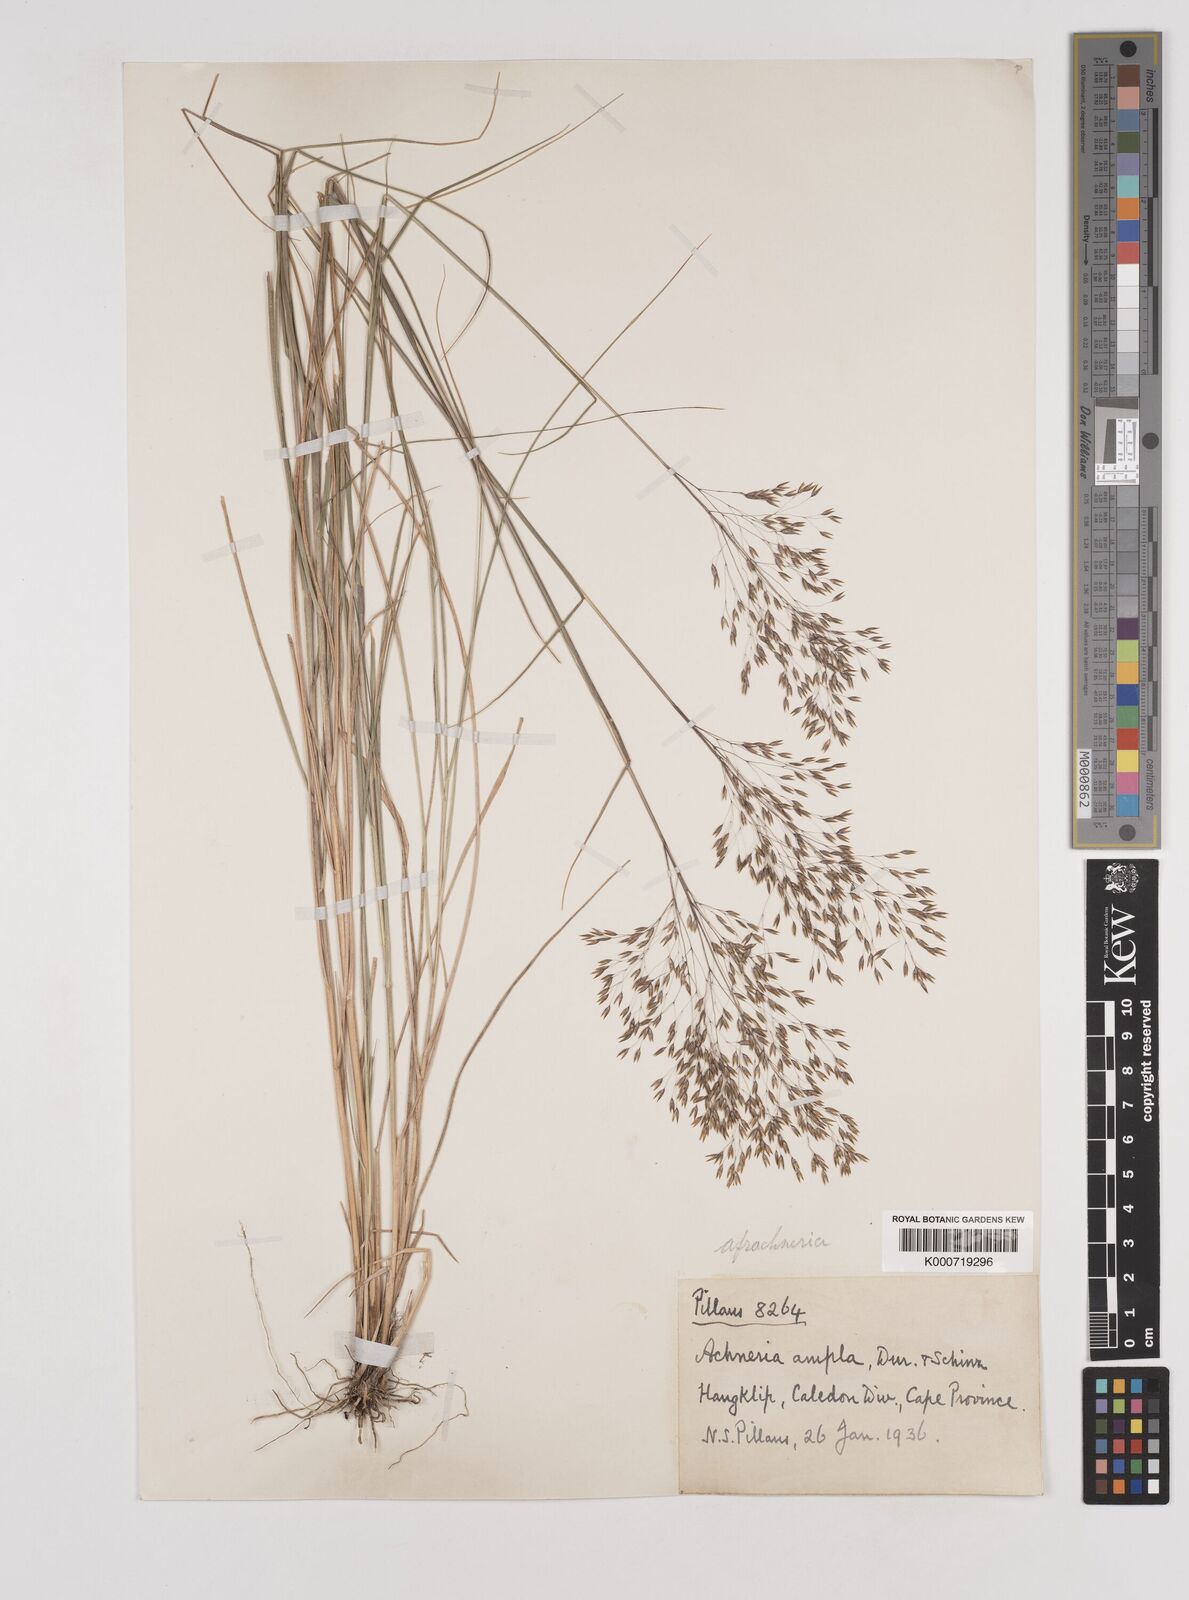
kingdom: Plantae
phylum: Tracheophyta
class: Liliopsida
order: Poales
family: Poaceae
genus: Pentameris
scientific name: Pentameris ampla
